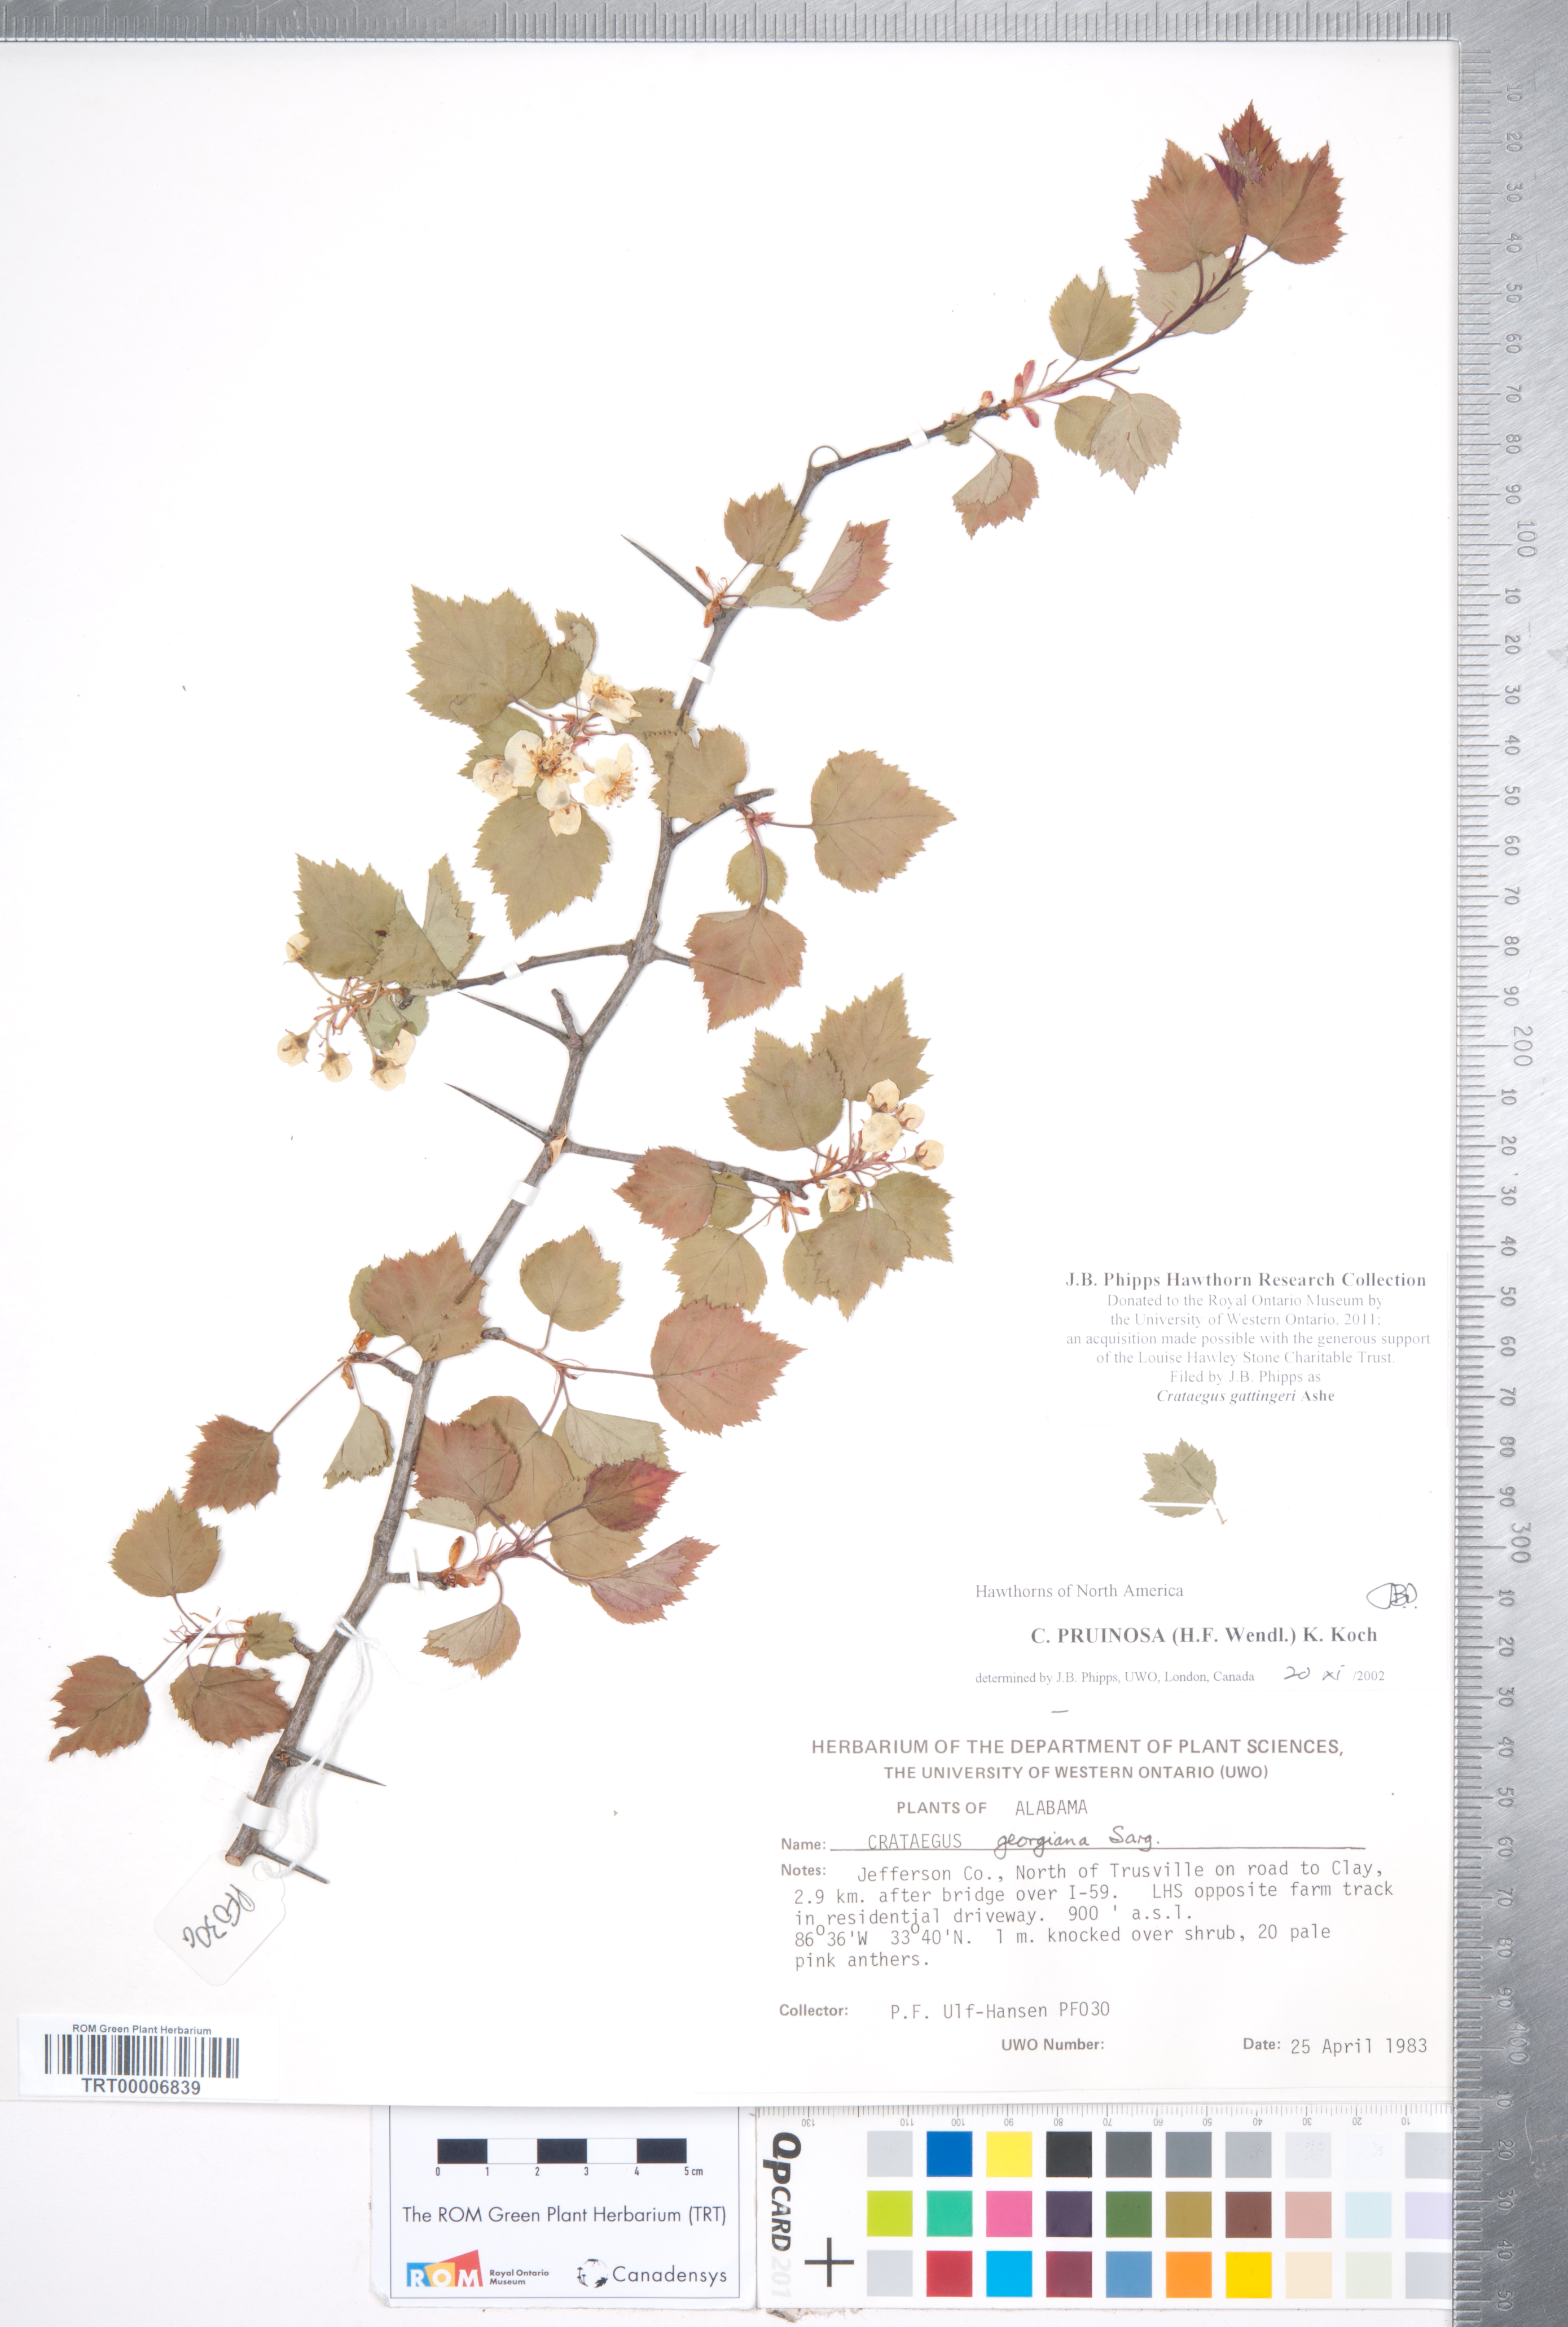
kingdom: Plantae
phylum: Tracheophyta
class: Magnoliopsida
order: Rosales
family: Rosaceae
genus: Crataegus
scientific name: Crataegus gattingeri
